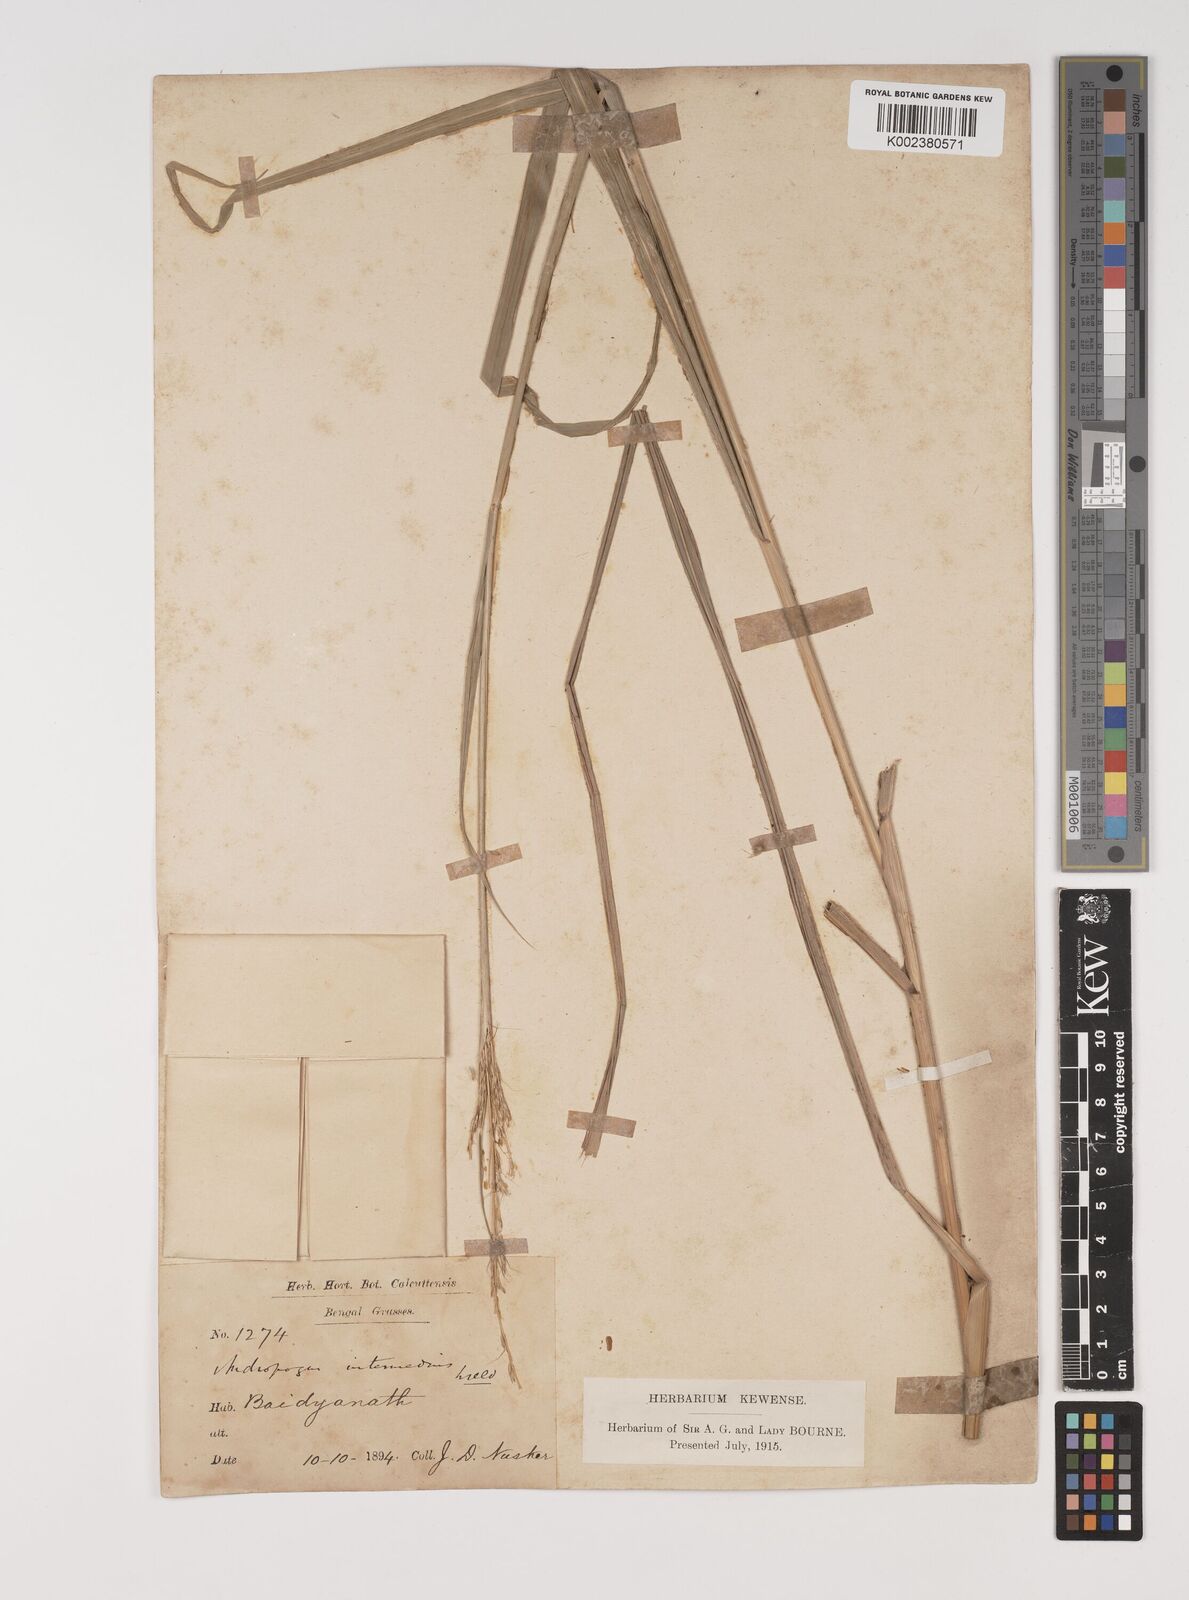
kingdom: Plantae
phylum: Tracheophyta
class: Liliopsida
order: Poales
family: Poaceae
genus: Bothriochloa
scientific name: Bothriochloa bladhii
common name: Caucasian bluestem
